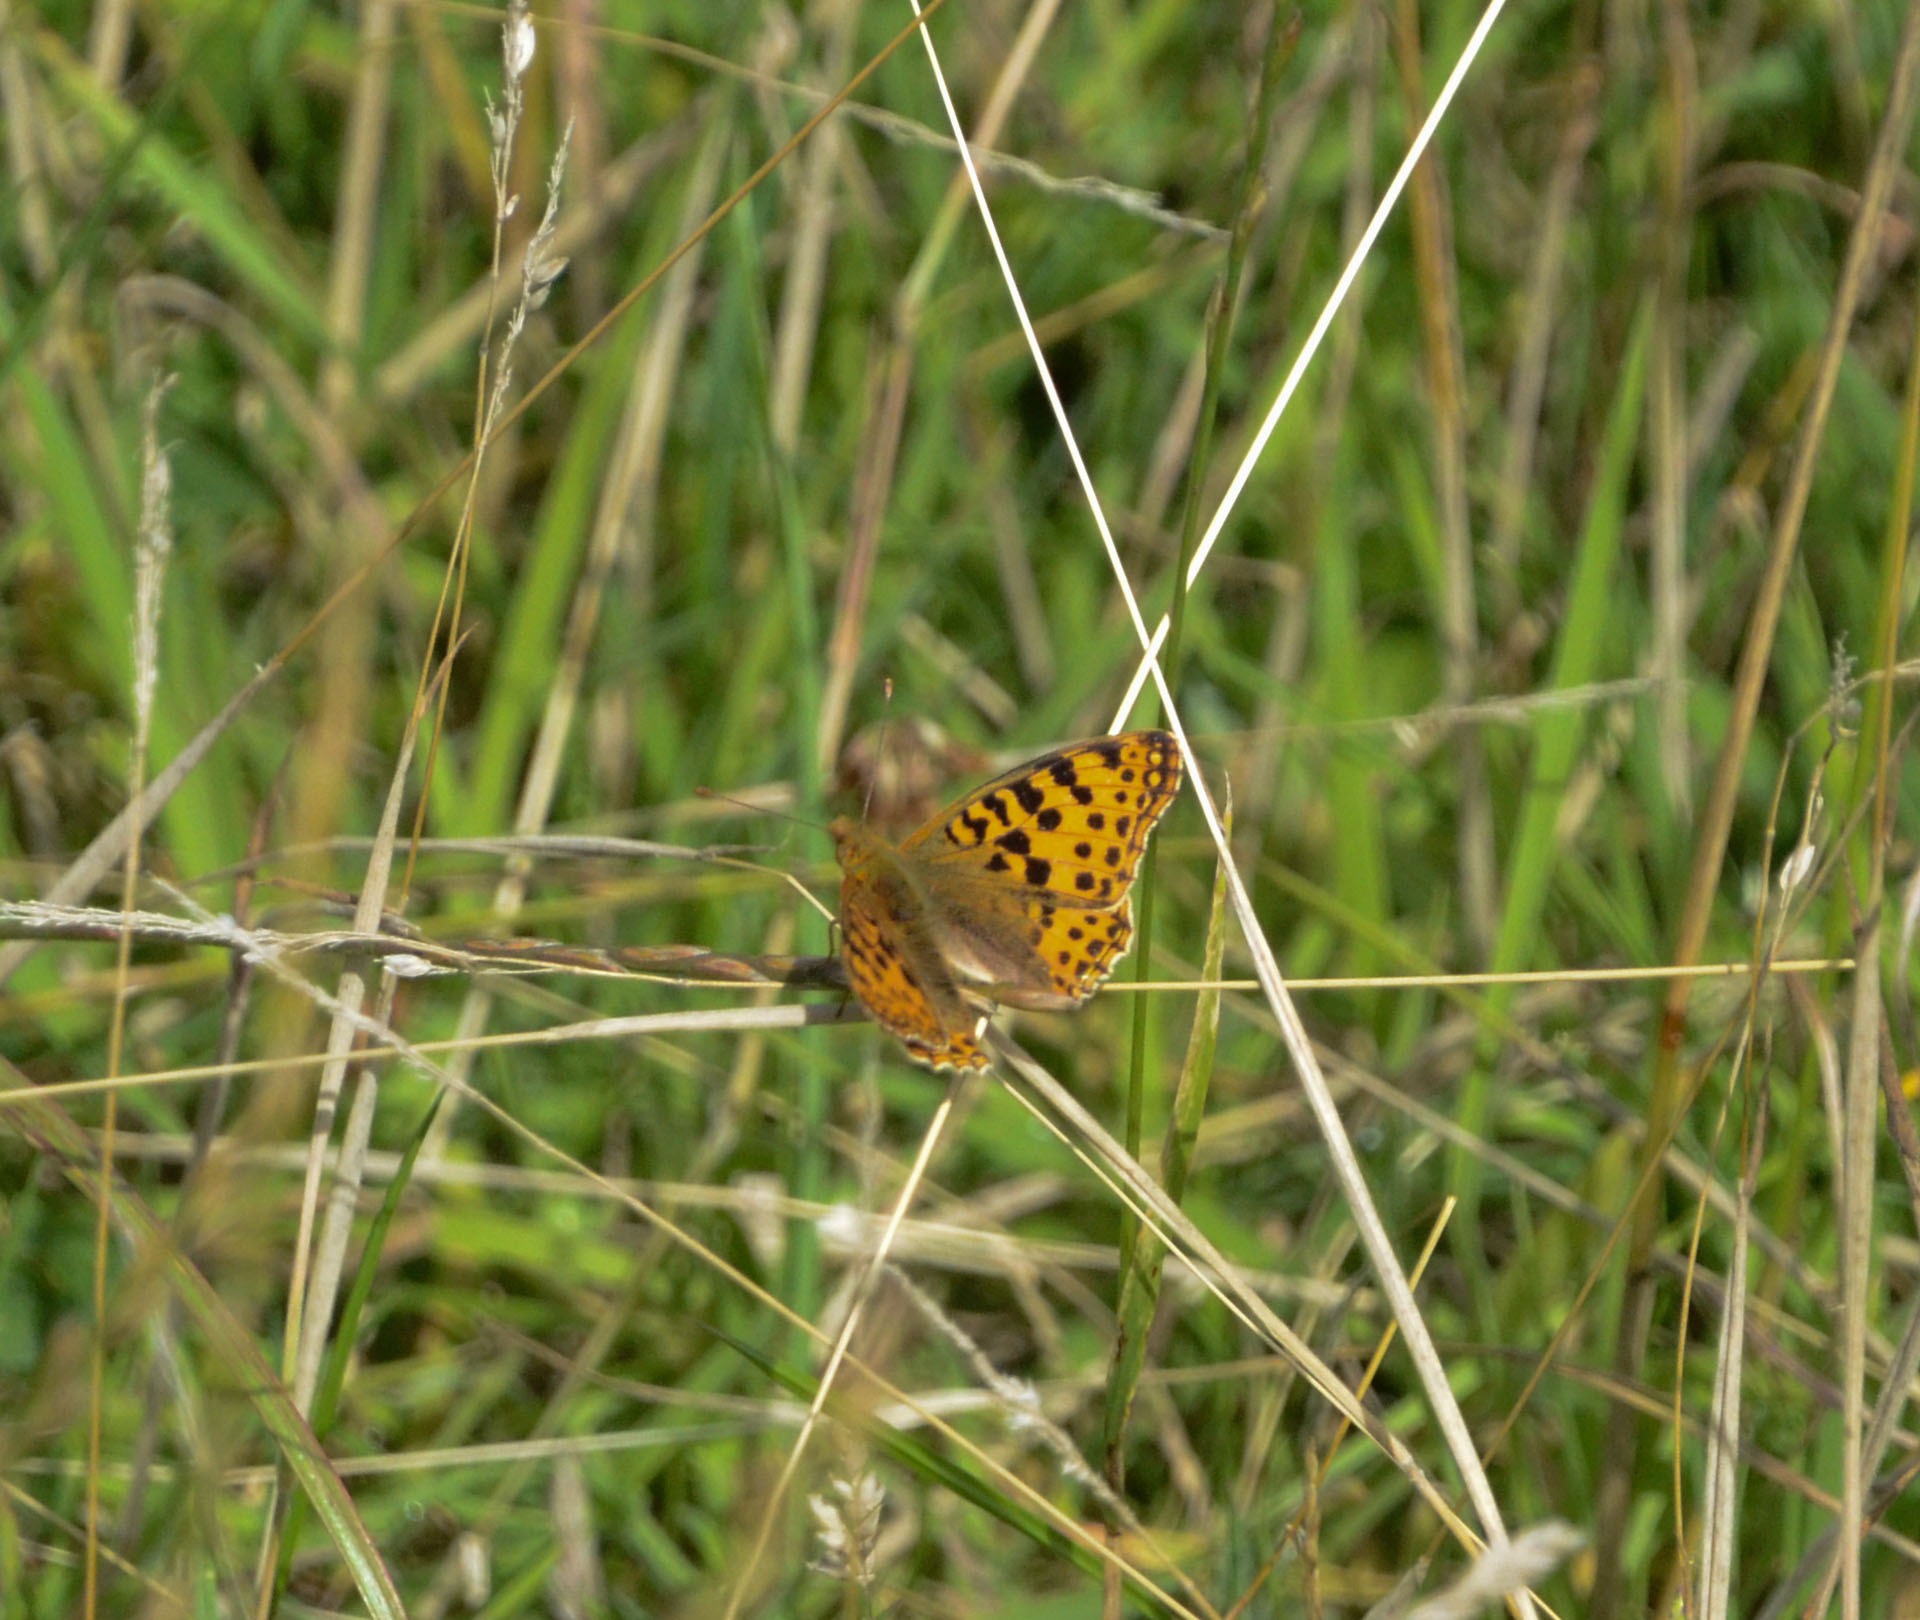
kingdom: Animalia
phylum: Arthropoda
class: Insecta
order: Lepidoptera
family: Nymphalidae
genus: Issoria
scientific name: Issoria lathonia
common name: Storplettet perlemorsommerfugl
